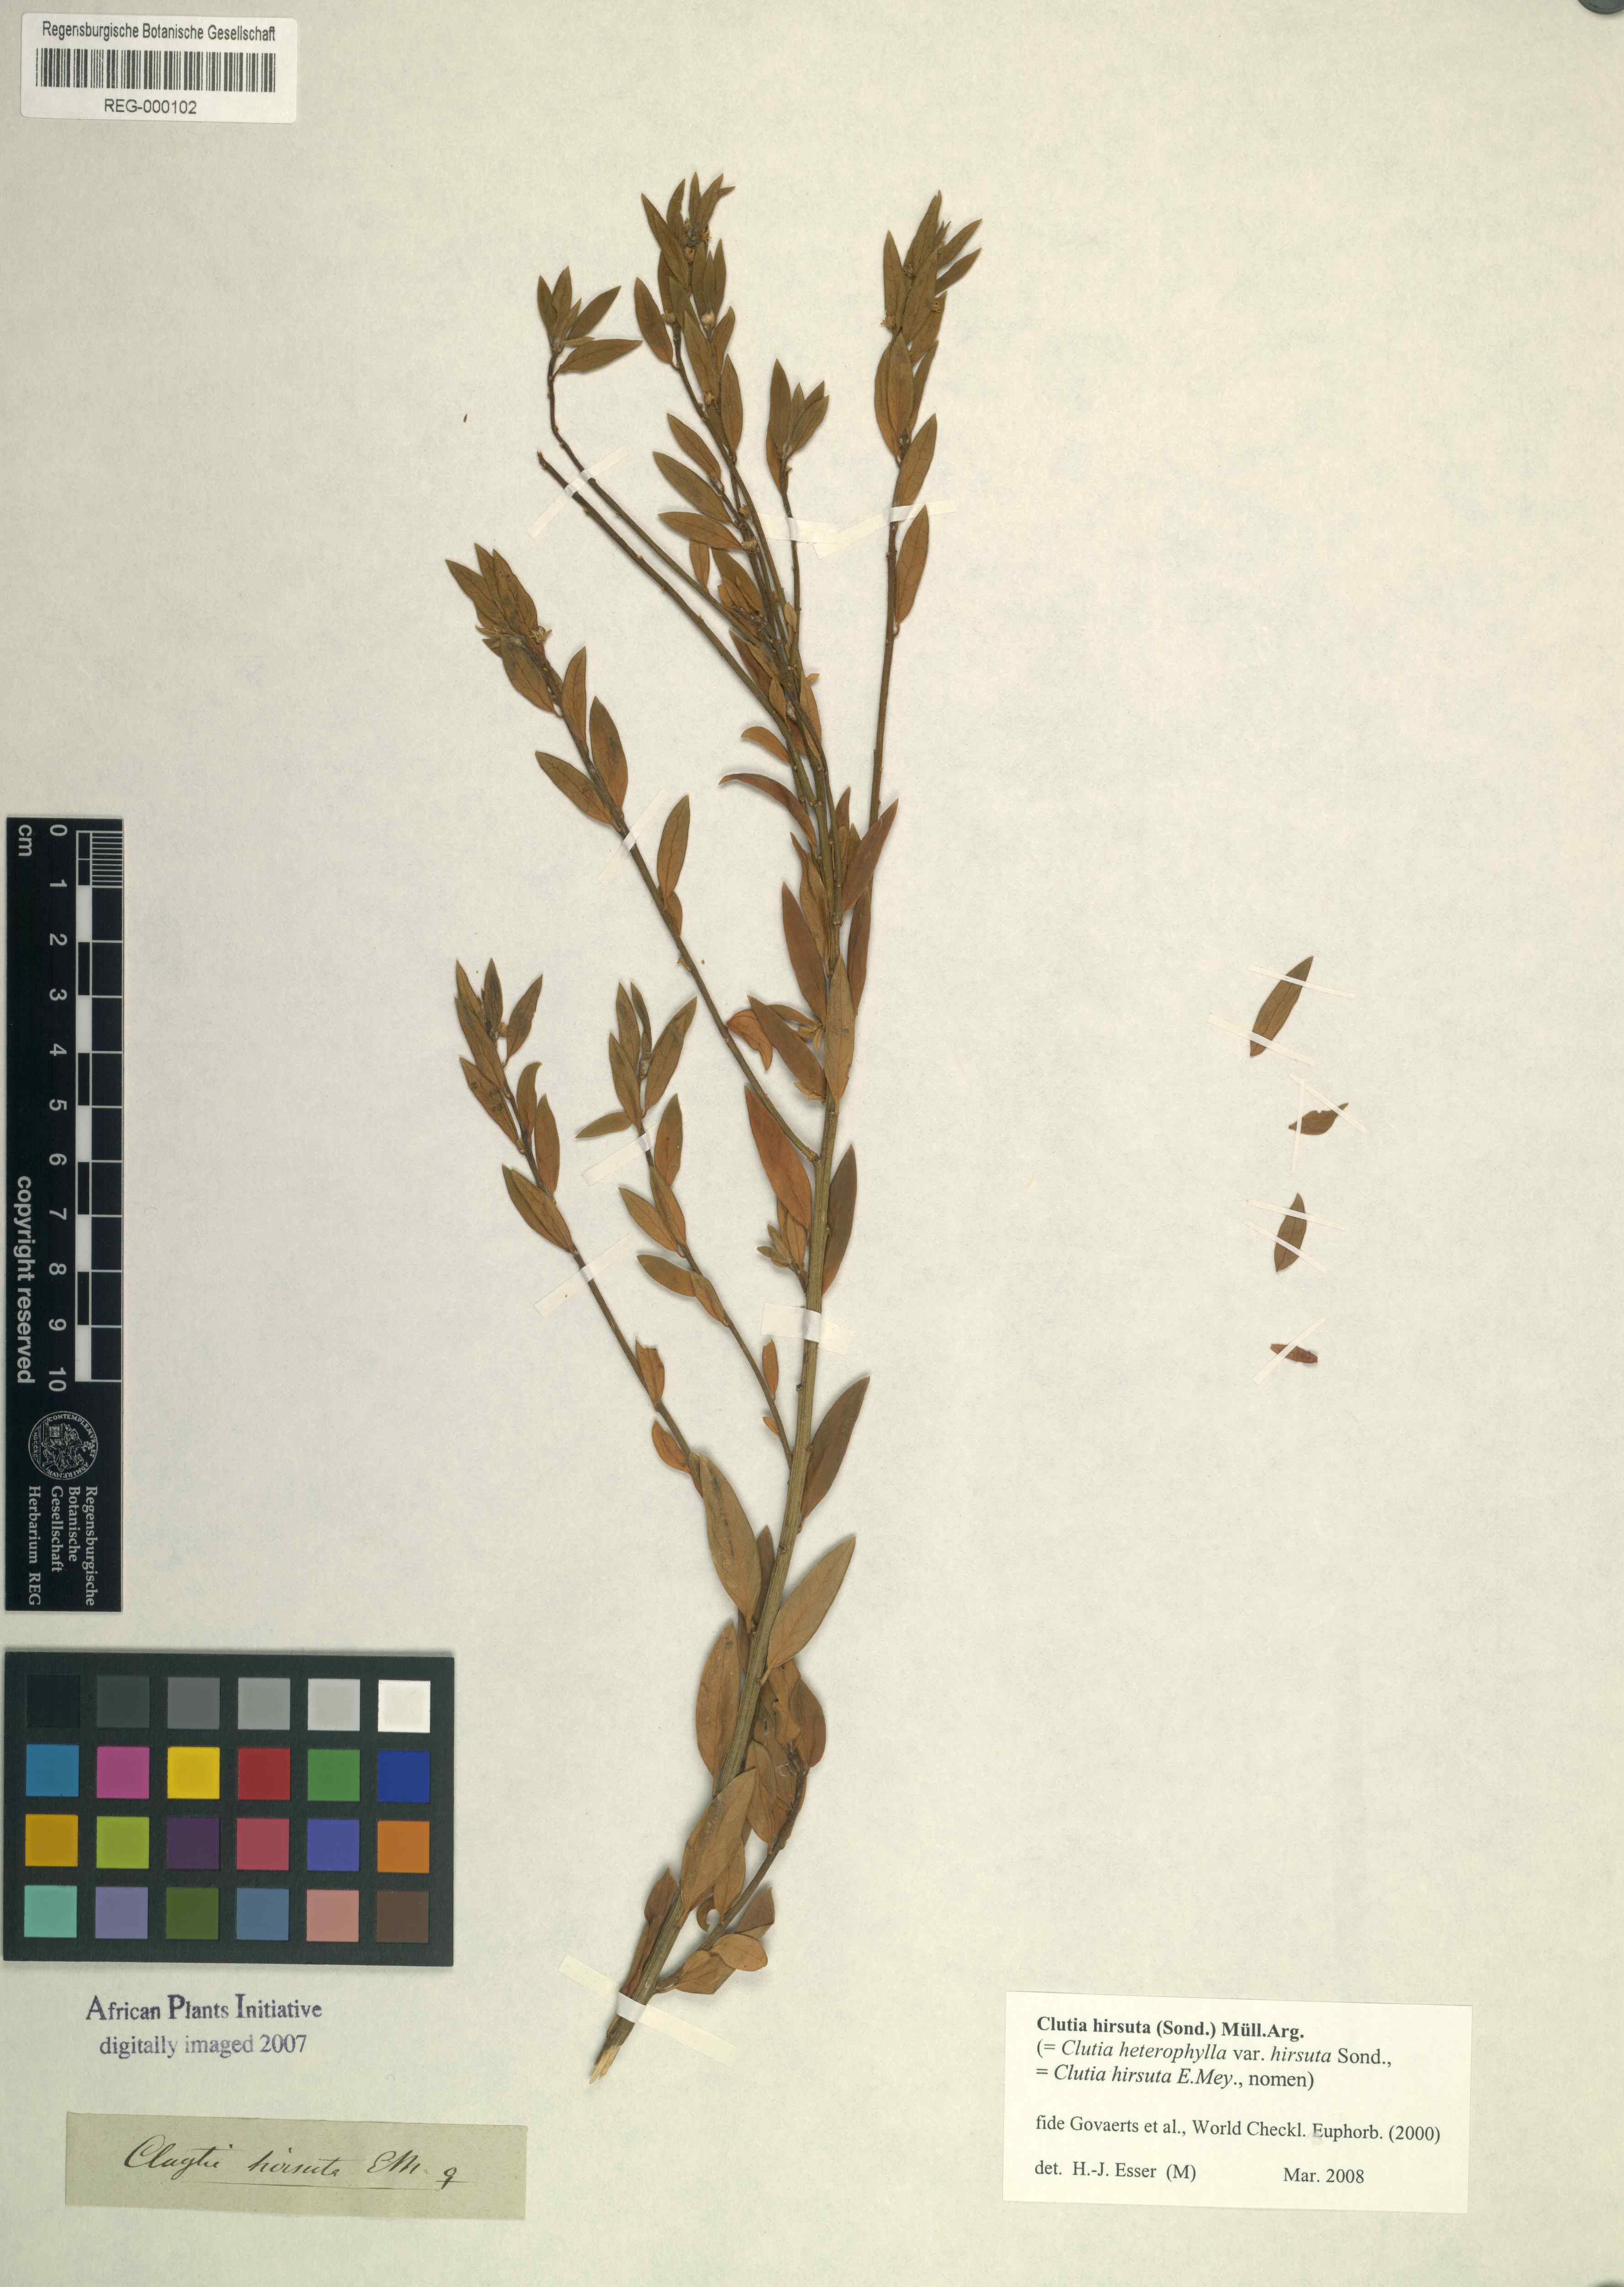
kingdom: Plantae
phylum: Tracheophyta
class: Magnoliopsida
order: Malpighiales
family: Peraceae
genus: Clutia
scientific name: Clutia hirsuta
